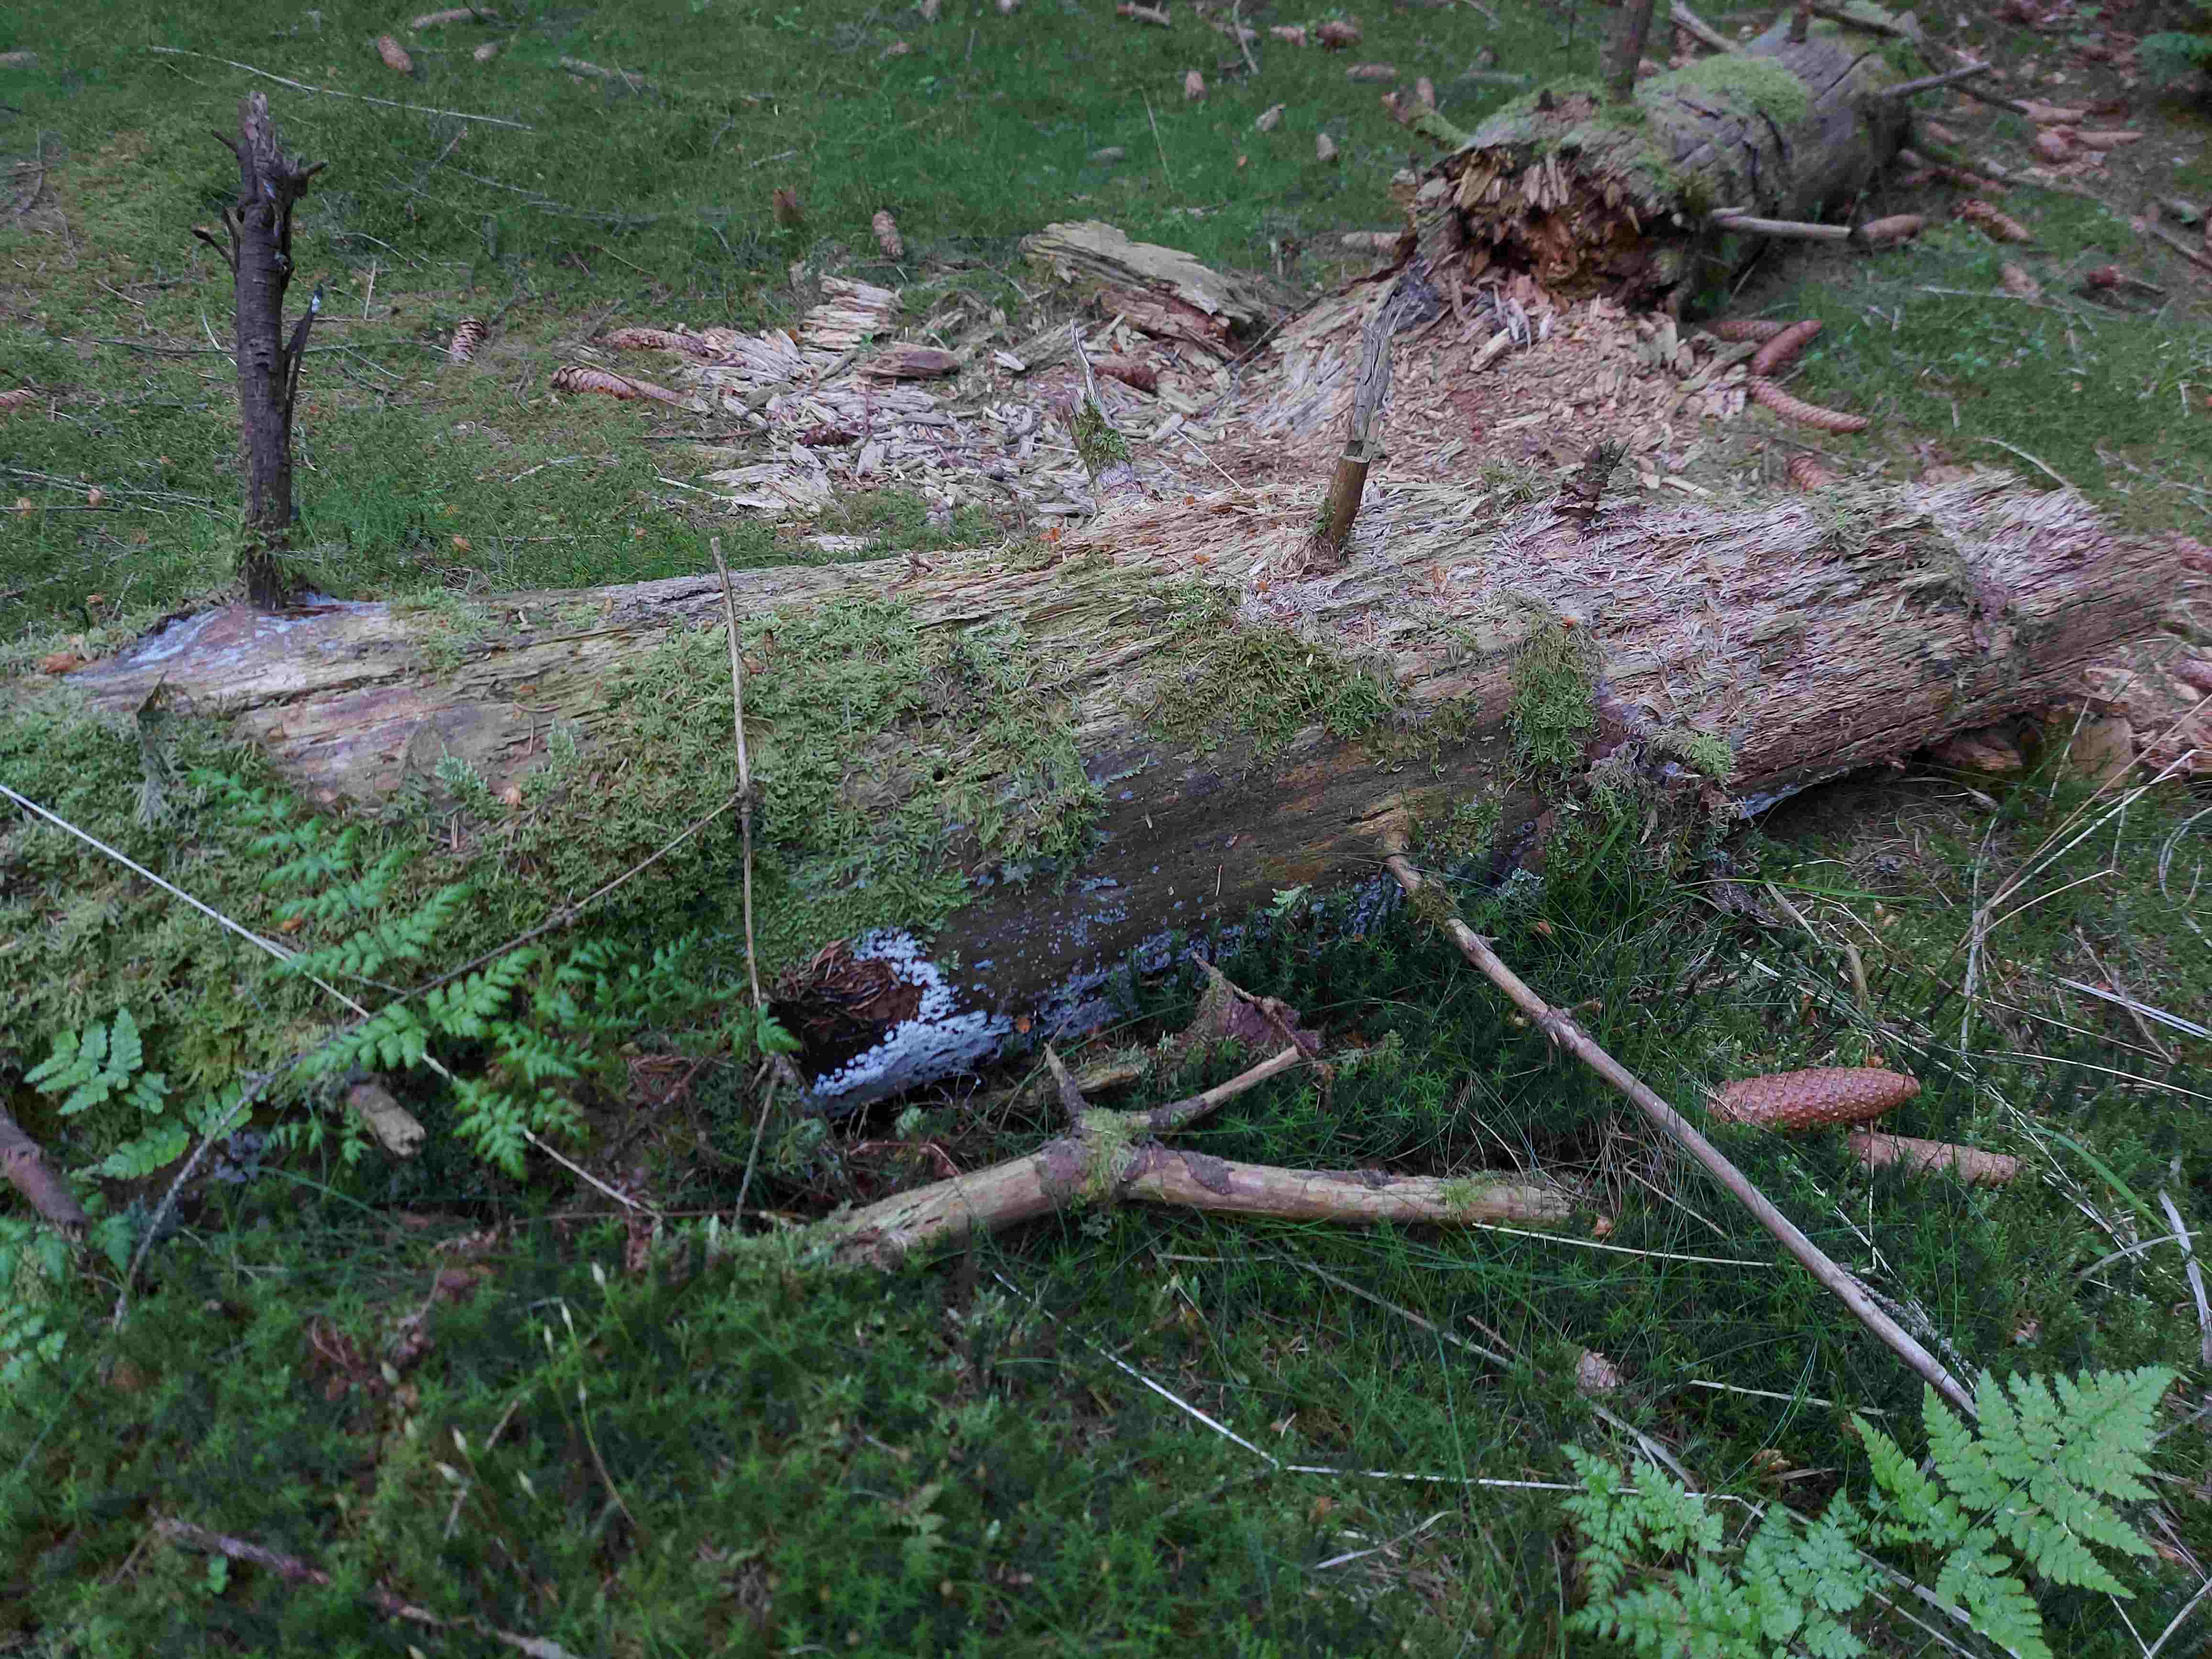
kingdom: Protozoa
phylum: Mycetozoa
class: Protosteliomycetes
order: Ceratiomyxales
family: Ceratiomyxaceae
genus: Ceratiomyxa
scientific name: Ceratiomyxa fruticulosa
